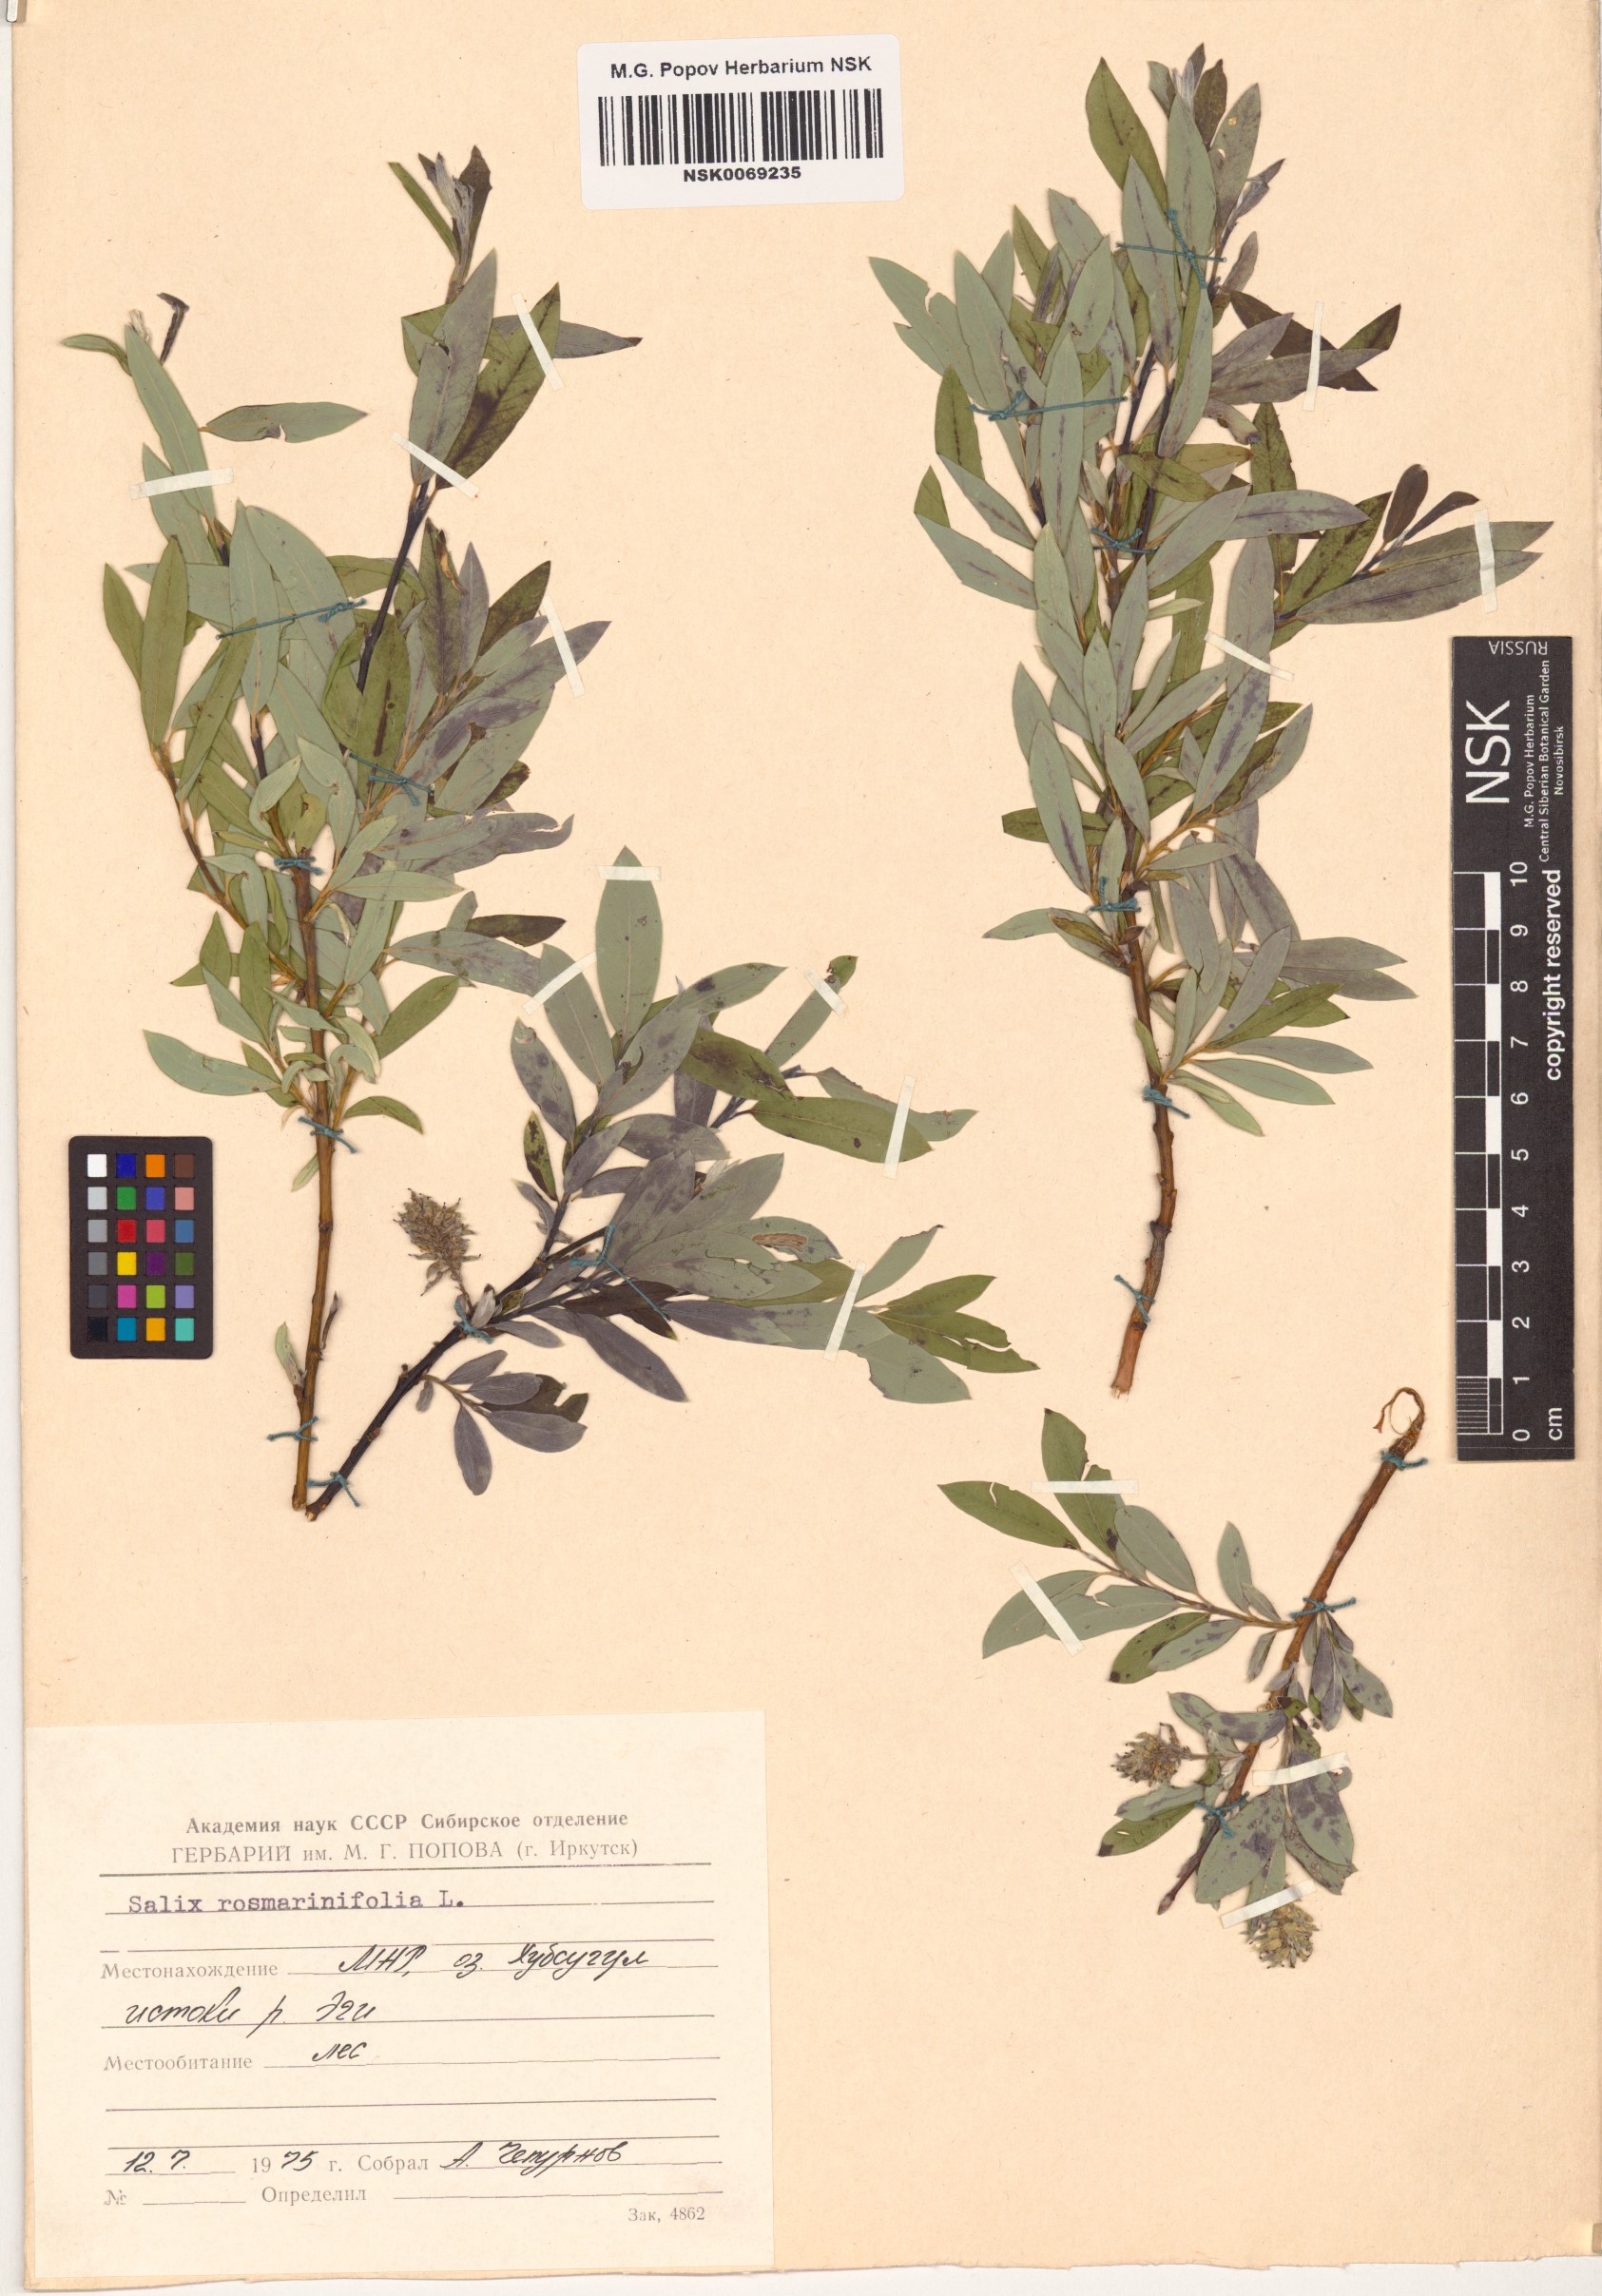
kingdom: Plantae
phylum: Tracheophyta
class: Magnoliopsida
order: Malpighiales
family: Salicaceae
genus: Salix
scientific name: Salix rosmarinifolia
